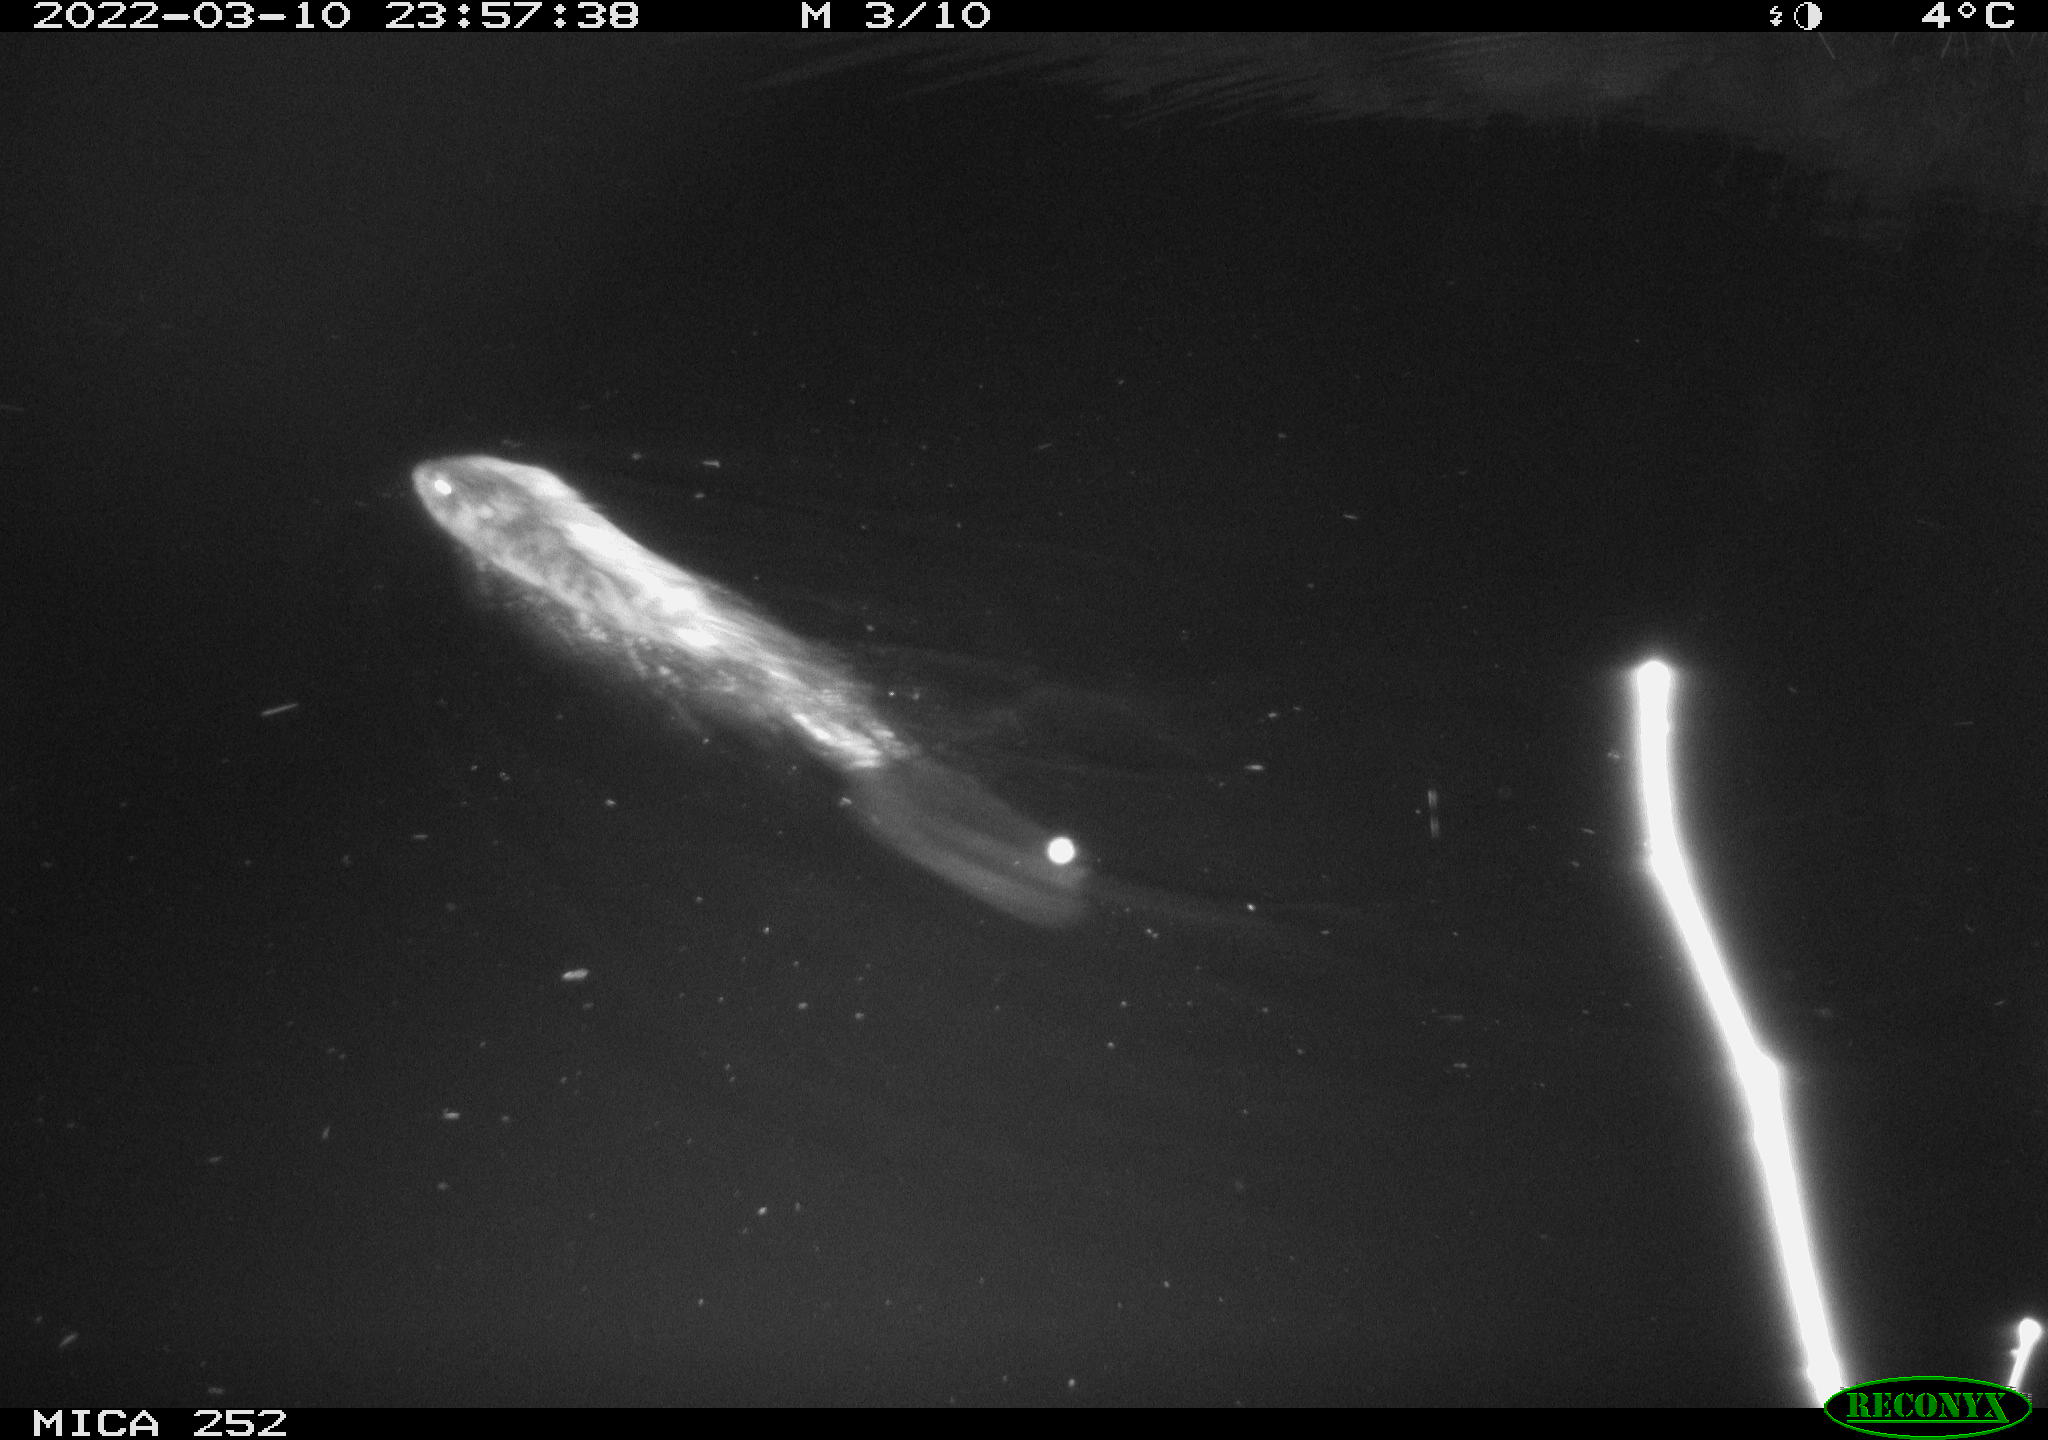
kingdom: Animalia
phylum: Chordata
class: Mammalia
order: Rodentia
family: Castoridae
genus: Castor
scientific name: Castor fiber
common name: Eurasian beaver
